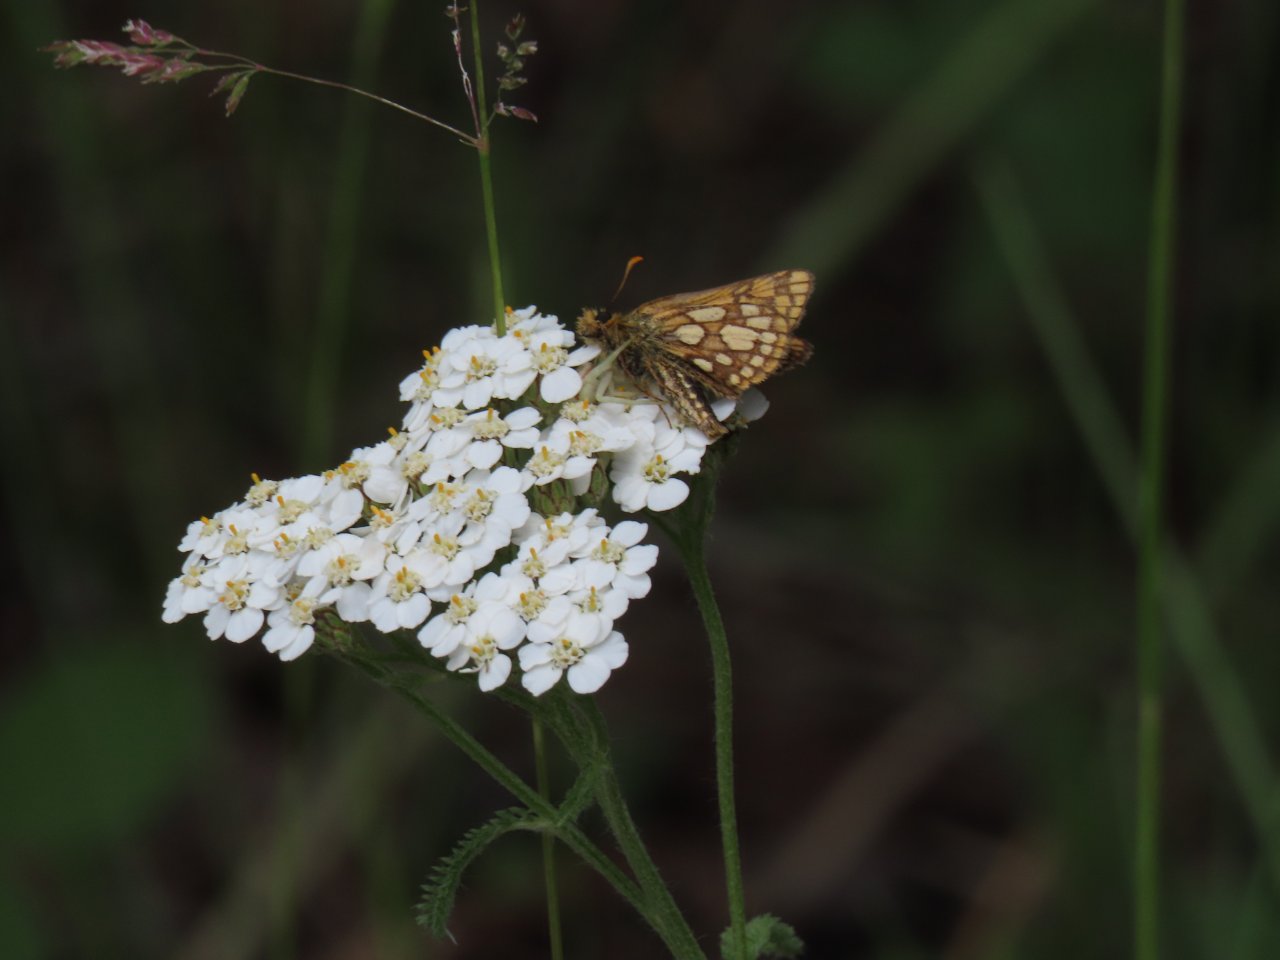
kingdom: Animalia
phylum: Arthropoda
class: Insecta
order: Lepidoptera
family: Hesperiidae
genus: Carterocephalus
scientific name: Carterocephalus palaemon
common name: Chequered Skipper
